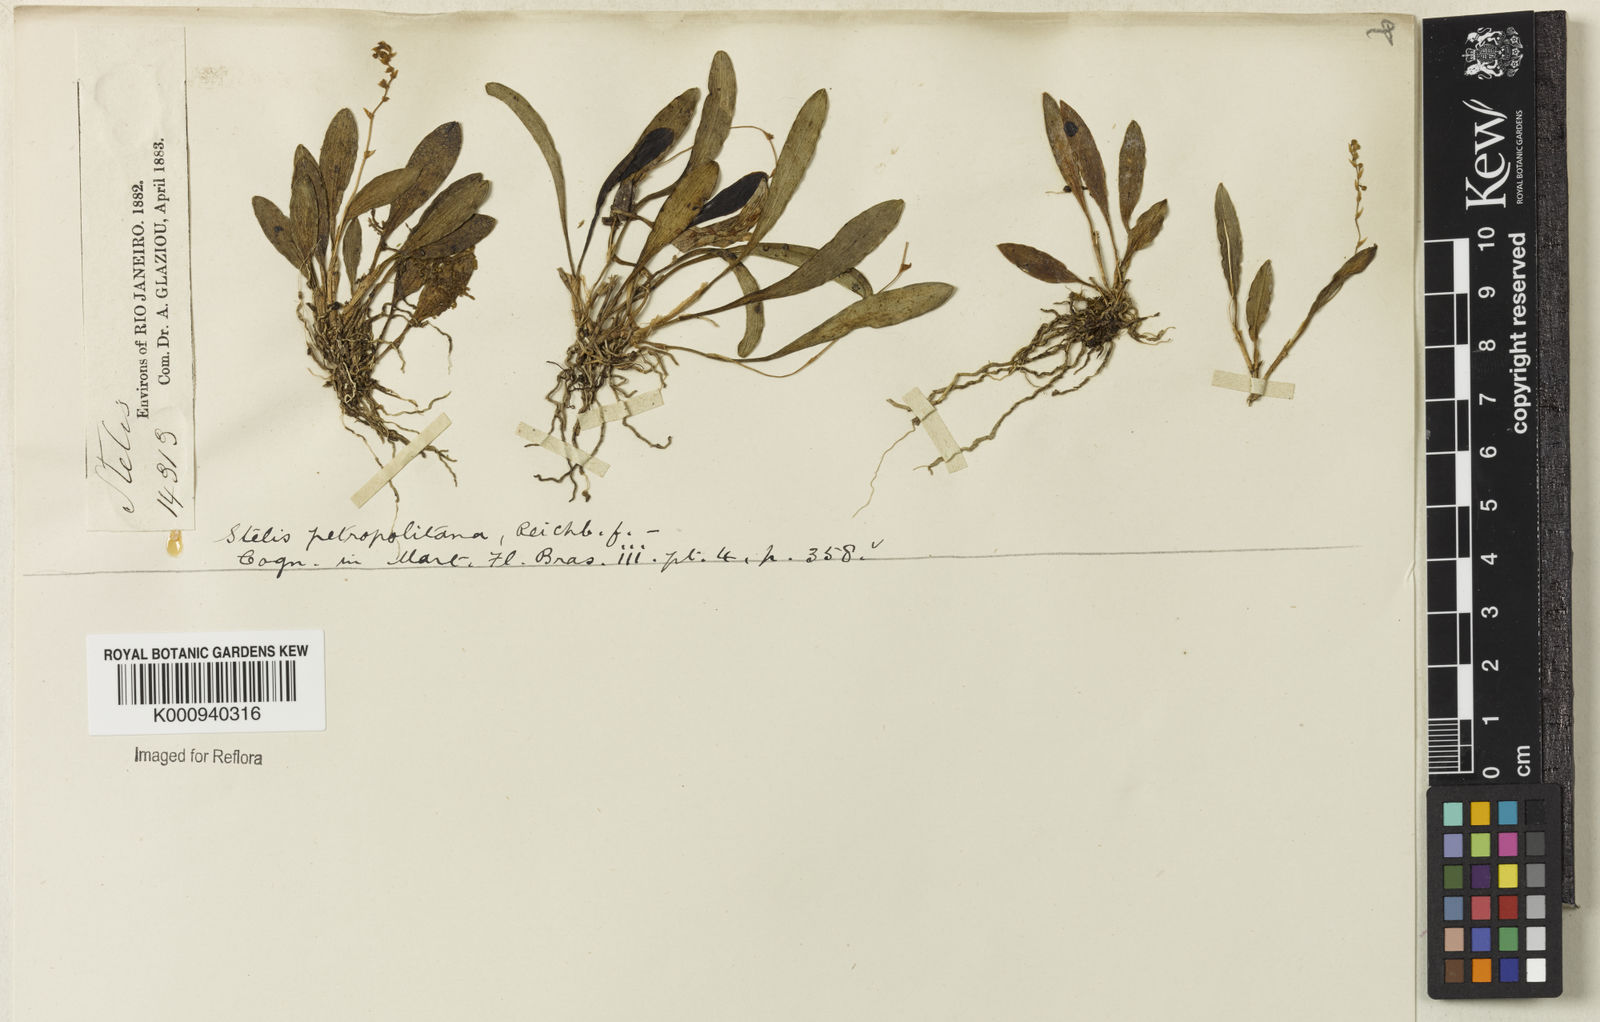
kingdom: Plantae
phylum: Tracheophyta
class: Liliopsida
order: Asparagales
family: Orchidaceae
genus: Stelis
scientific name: Stelis intermedia
